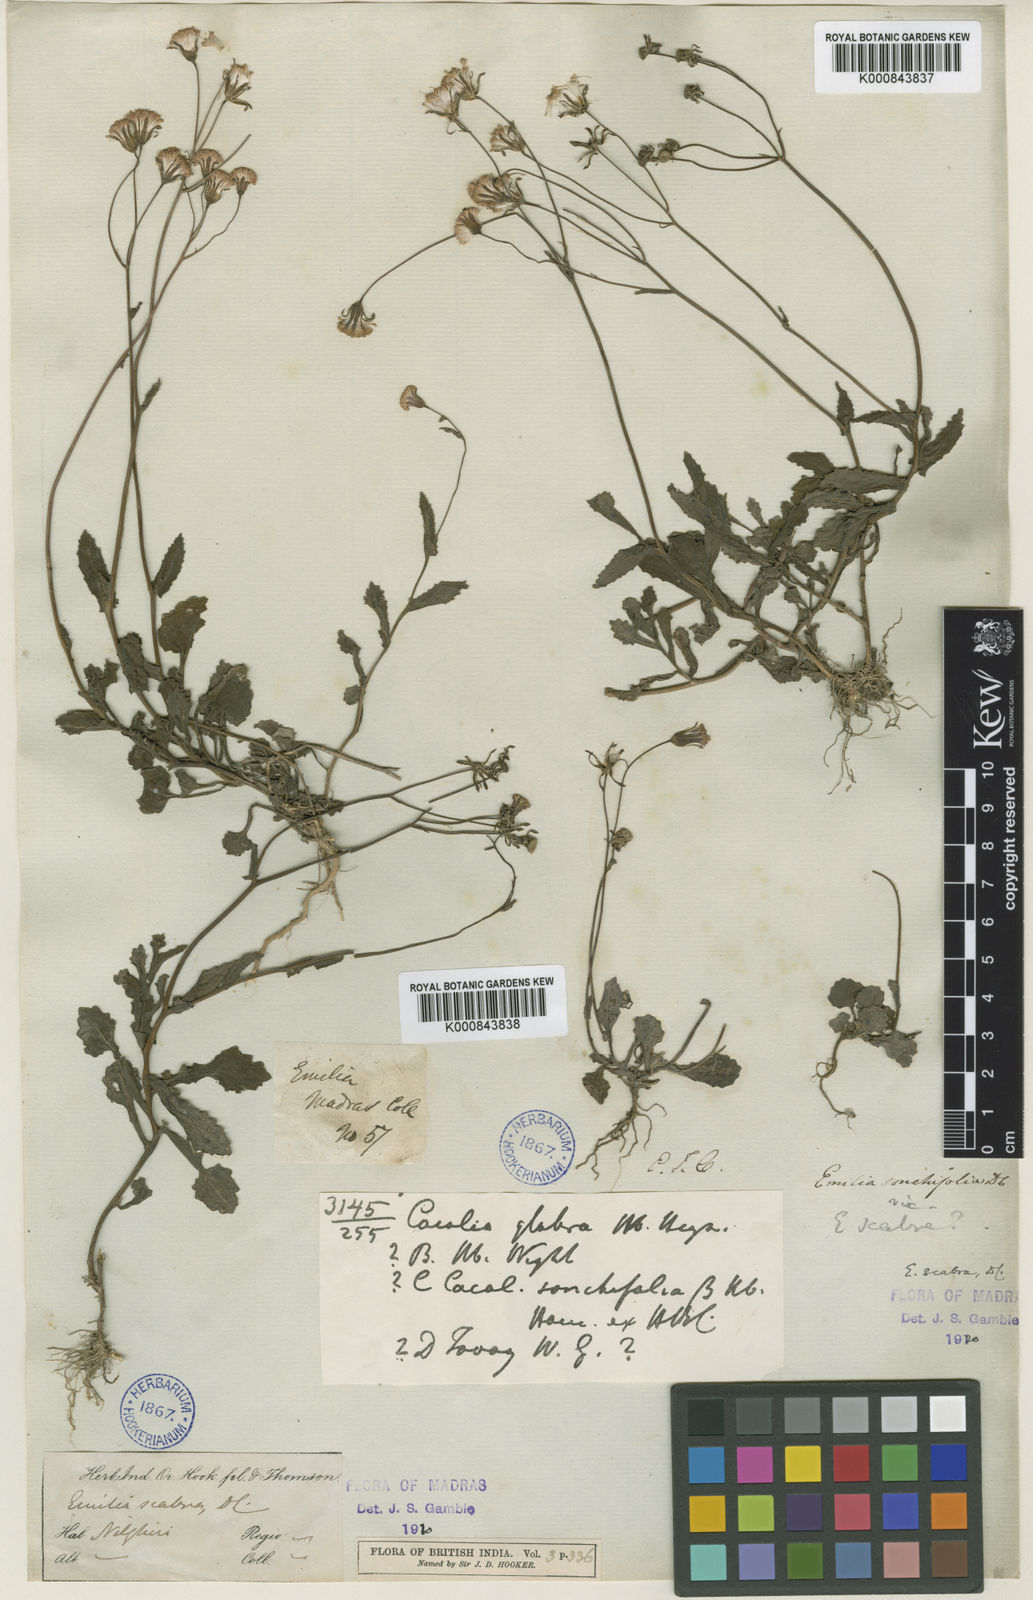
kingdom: Plantae
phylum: Tracheophyta
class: Magnoliopsida
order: Asterales
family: Asteraceae
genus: Emilia
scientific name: Emilia scabra
